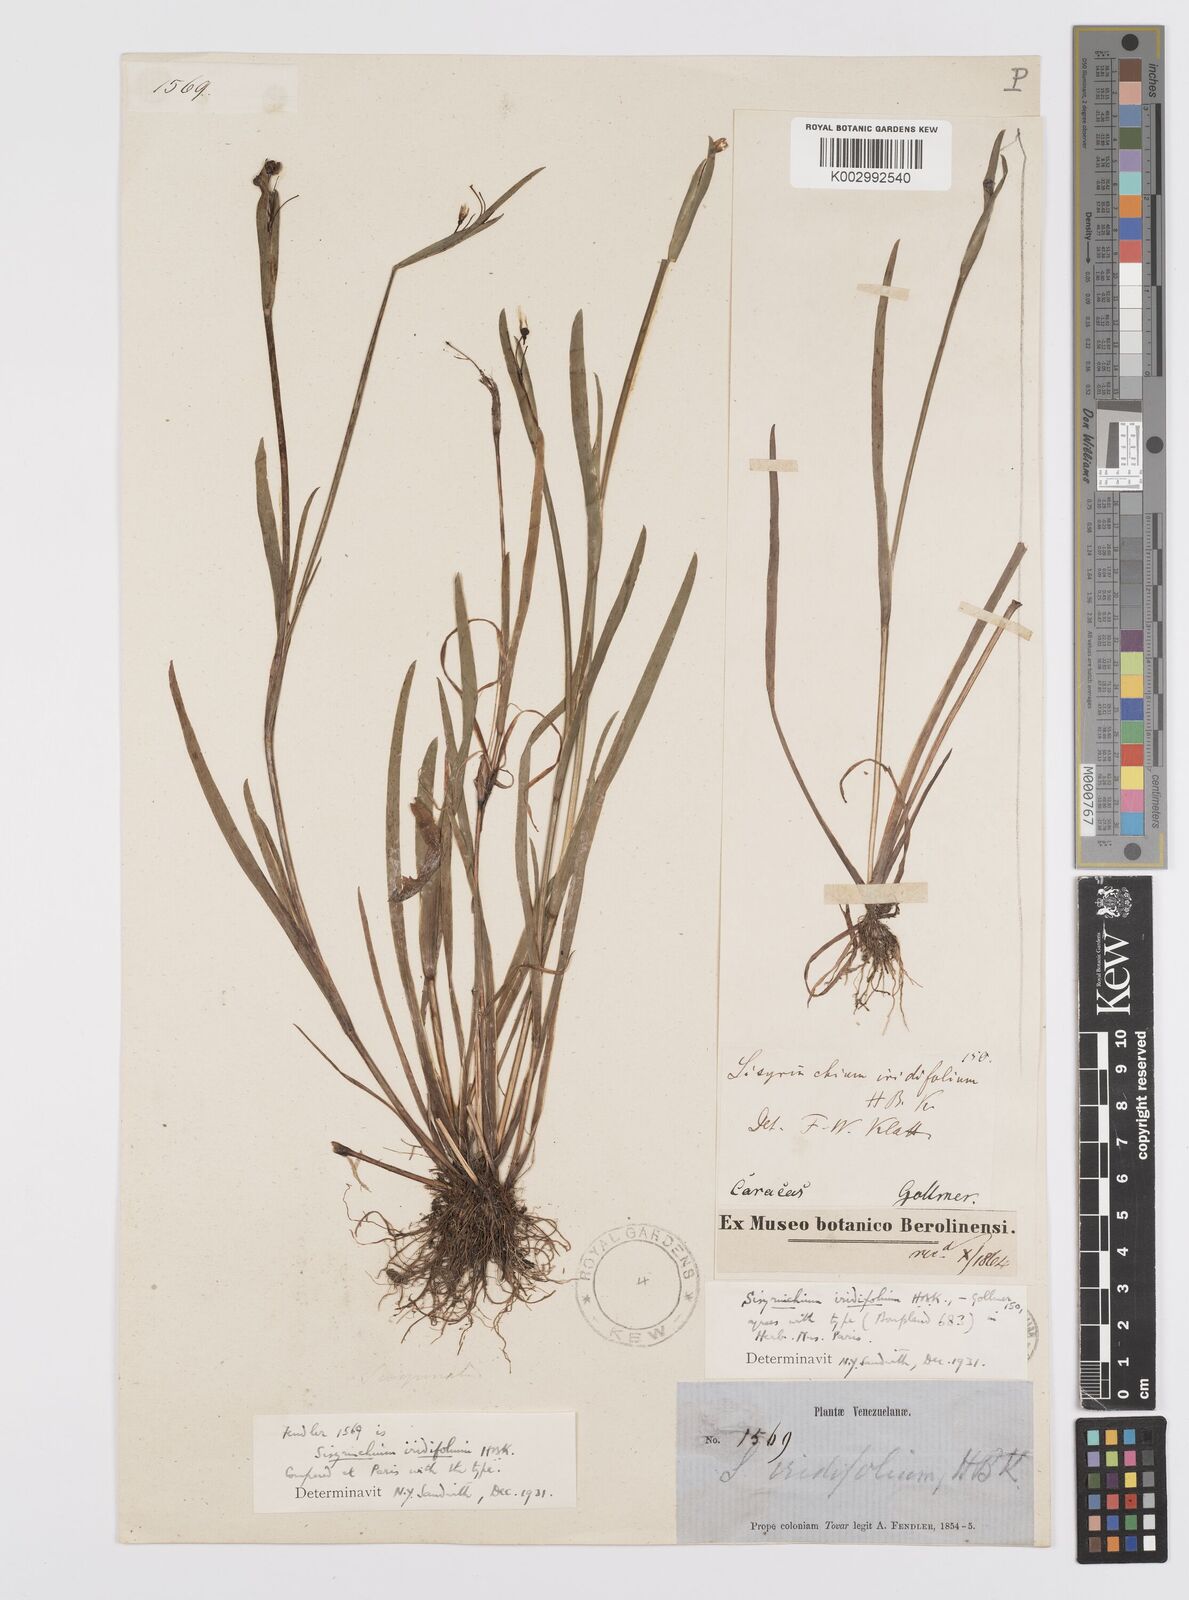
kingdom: Plantae
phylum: Tracheophyta
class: Liliopsida
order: Asparagales
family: Iridaceae
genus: Sisyrinchium
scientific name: Sisyrinchium micranthum
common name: Bermuda pigroot
